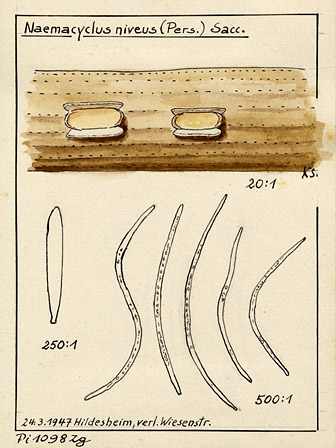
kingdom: Fungi
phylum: Ascomycota
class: Leotiomycetes
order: Chaetomellales
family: Marthamycetaceae
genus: Cyclaneusma
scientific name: Cyclaneusma niveum
